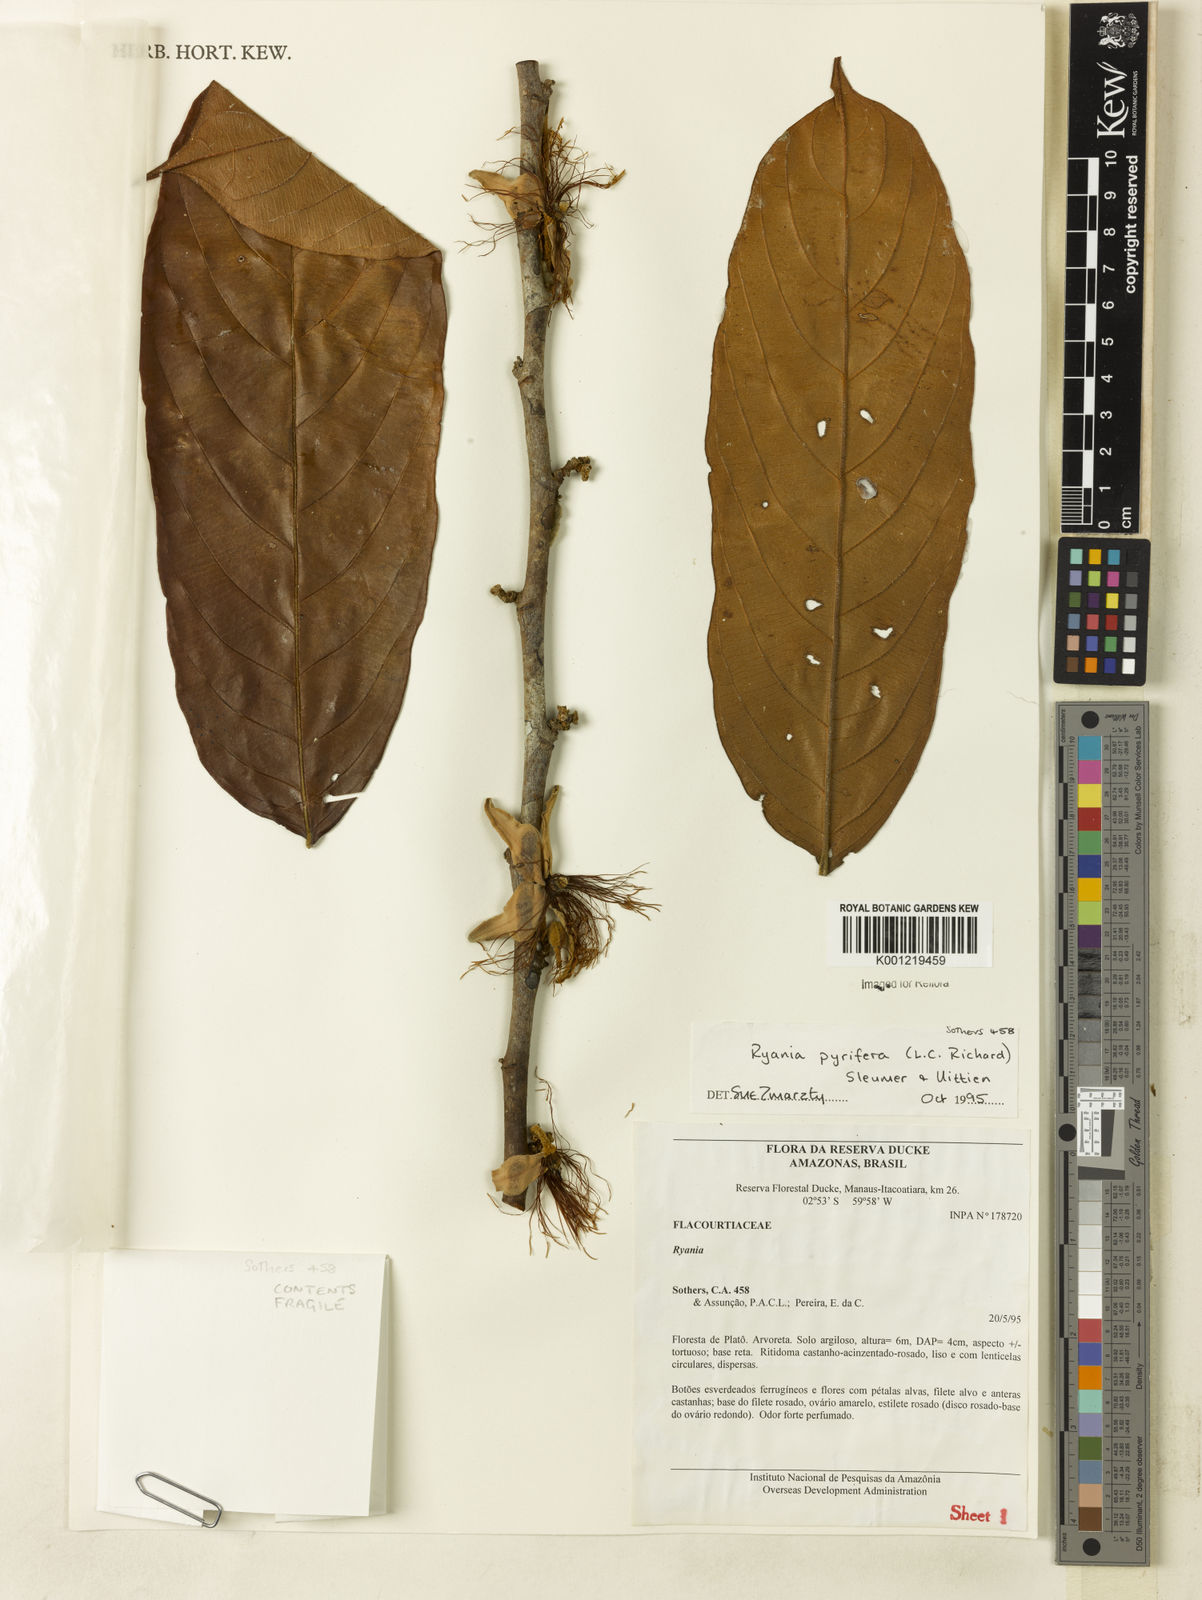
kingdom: Plantae
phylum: Tracheophyta
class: Magnoliopsida
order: Malpighiales
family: Salicaceae
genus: Ryania
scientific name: Ryania pyrifera
